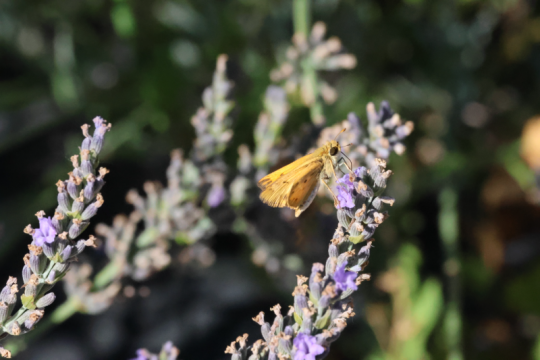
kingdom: Animalia
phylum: Arthropoda
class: Insecta
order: Lepidoptera
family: Hesperiidae
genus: Hylephila
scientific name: Hylephila phyleus
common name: Fiery Skipper
